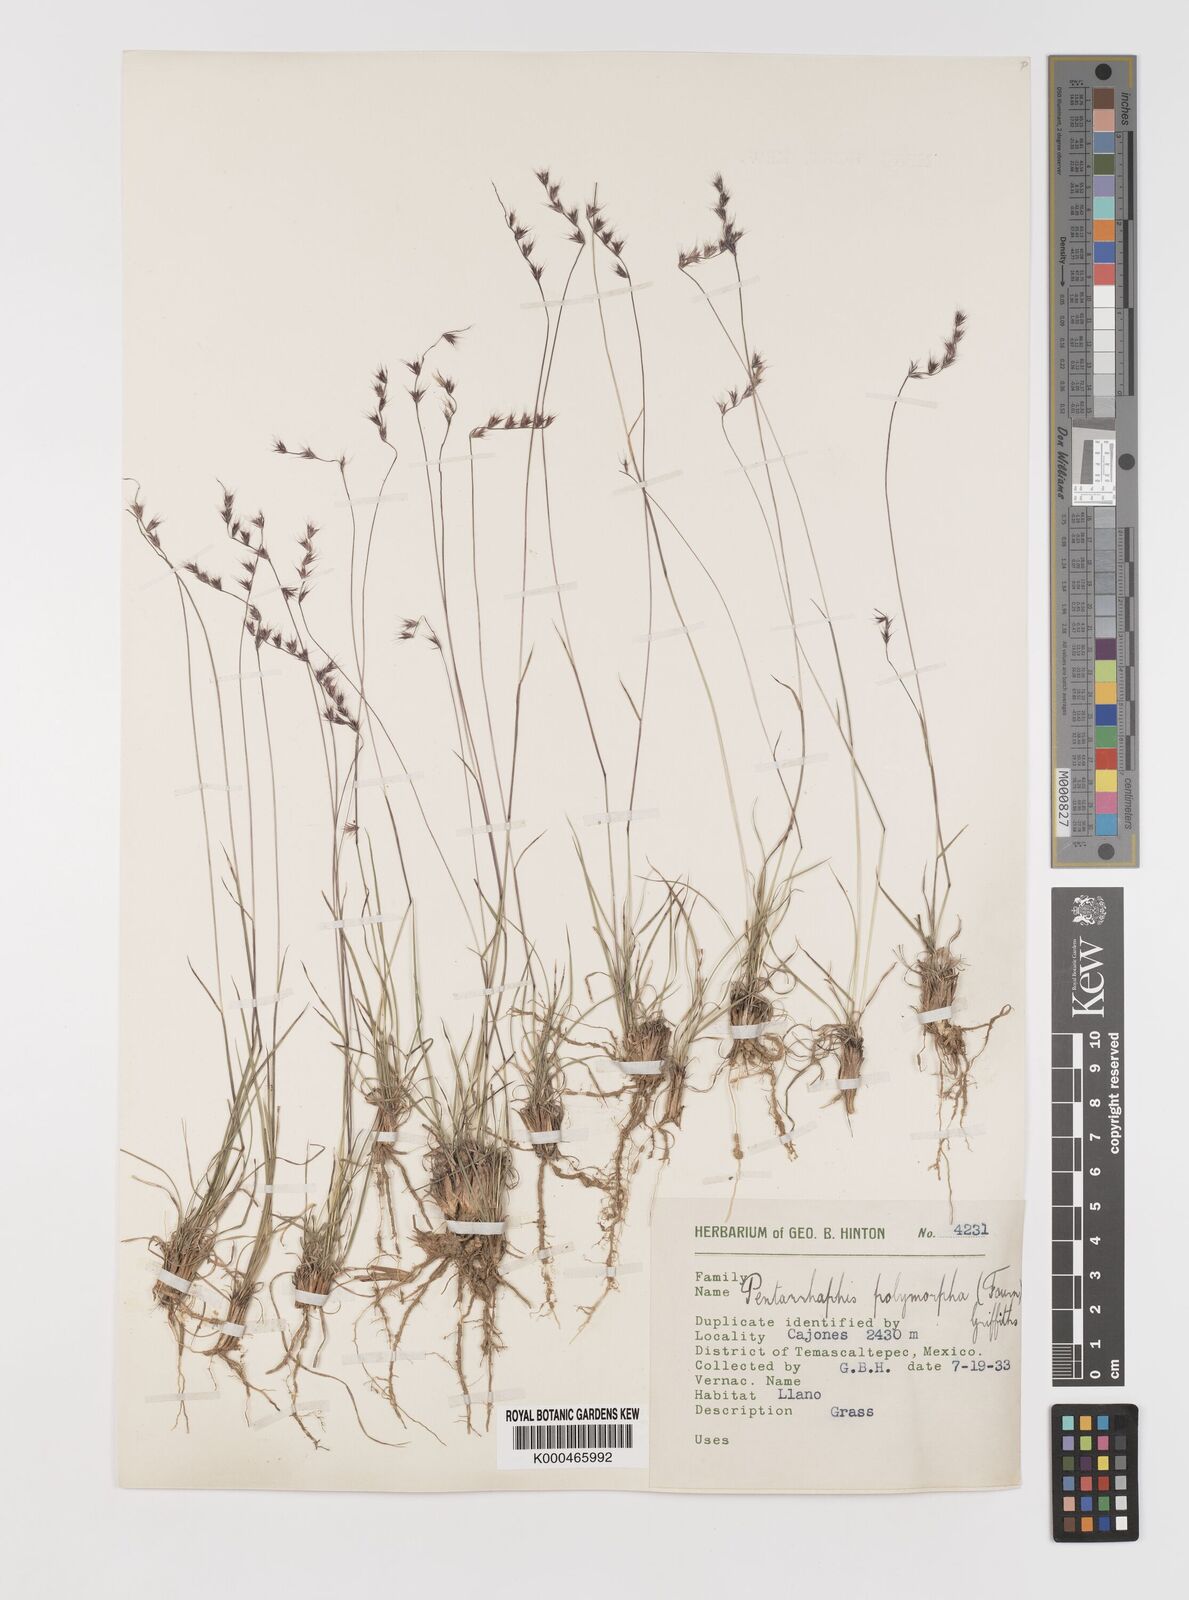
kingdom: Plantae
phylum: Tracheophyta
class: Liliopsida
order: Poales
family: Poaceae
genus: Bouteloua
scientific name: Bouteloua polymorpha
